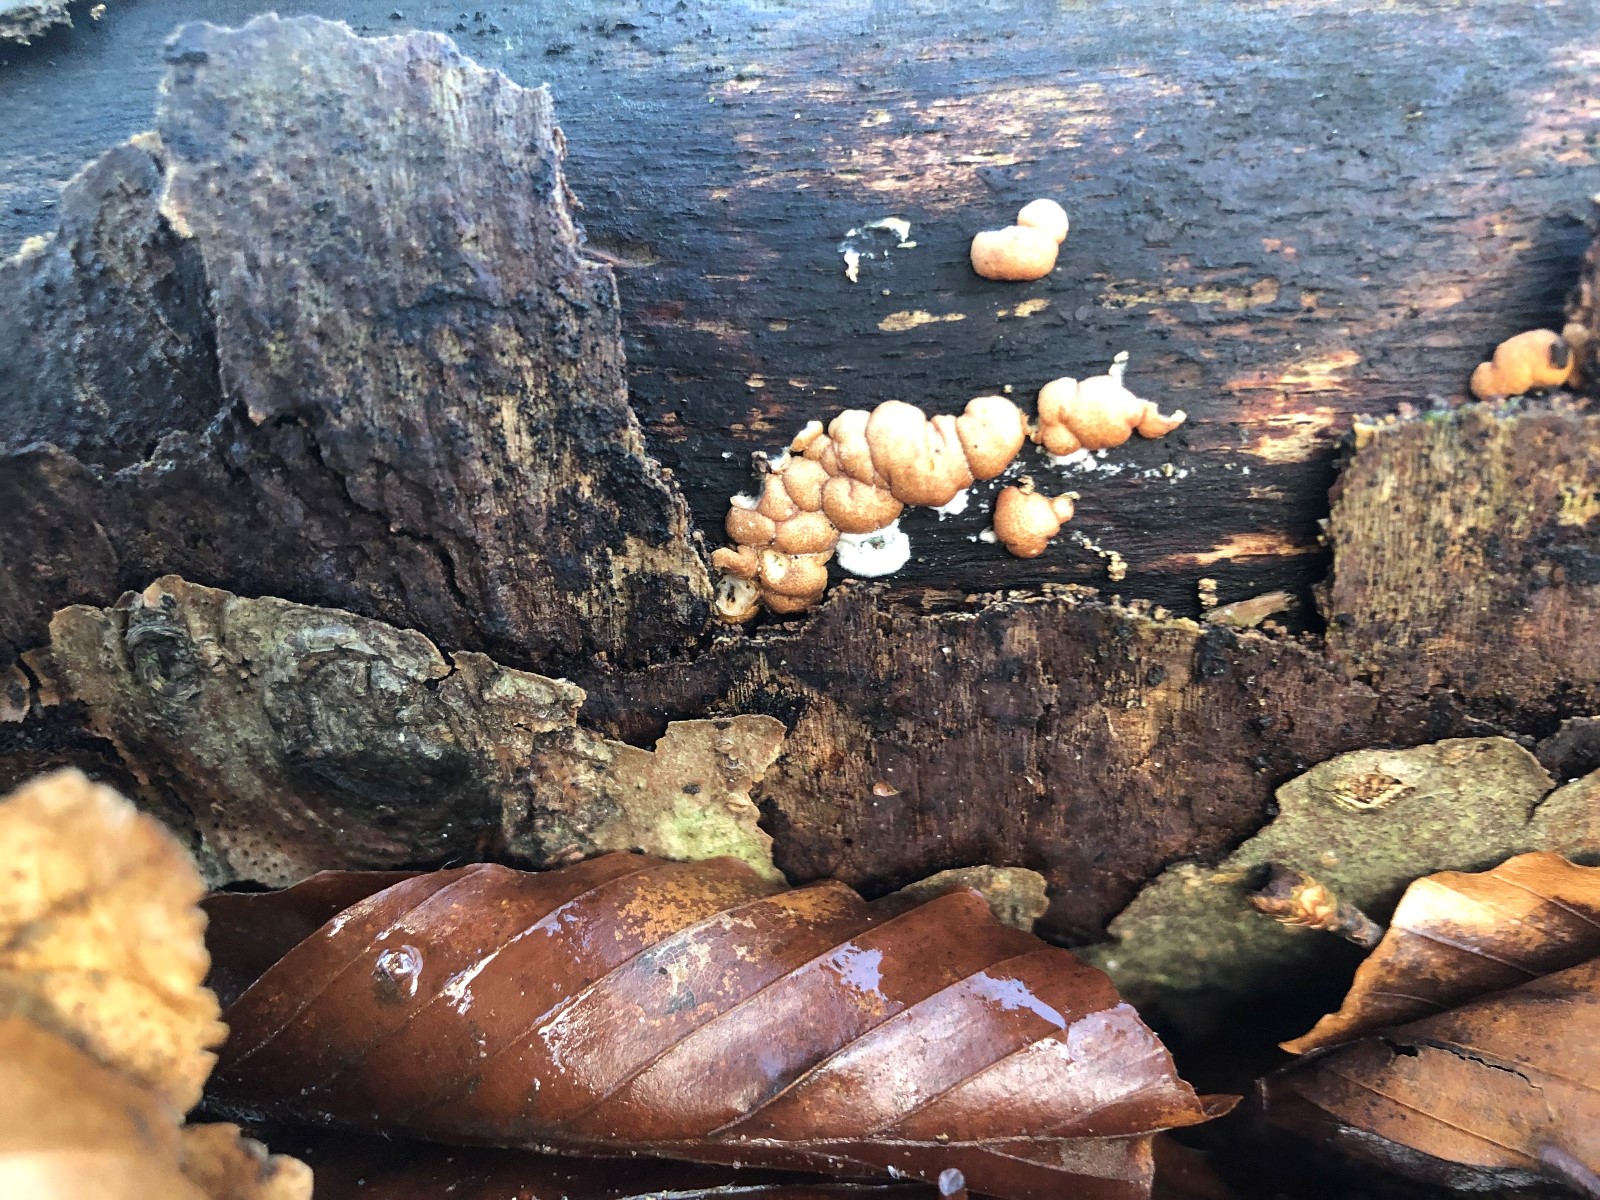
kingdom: Fungi
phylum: Ascomycota
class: Sordariomycetes
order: Hypocreales
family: Hypocreaceae
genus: Trichoderma
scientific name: Trichoderma europaeum
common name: rosabrun kødkerne
